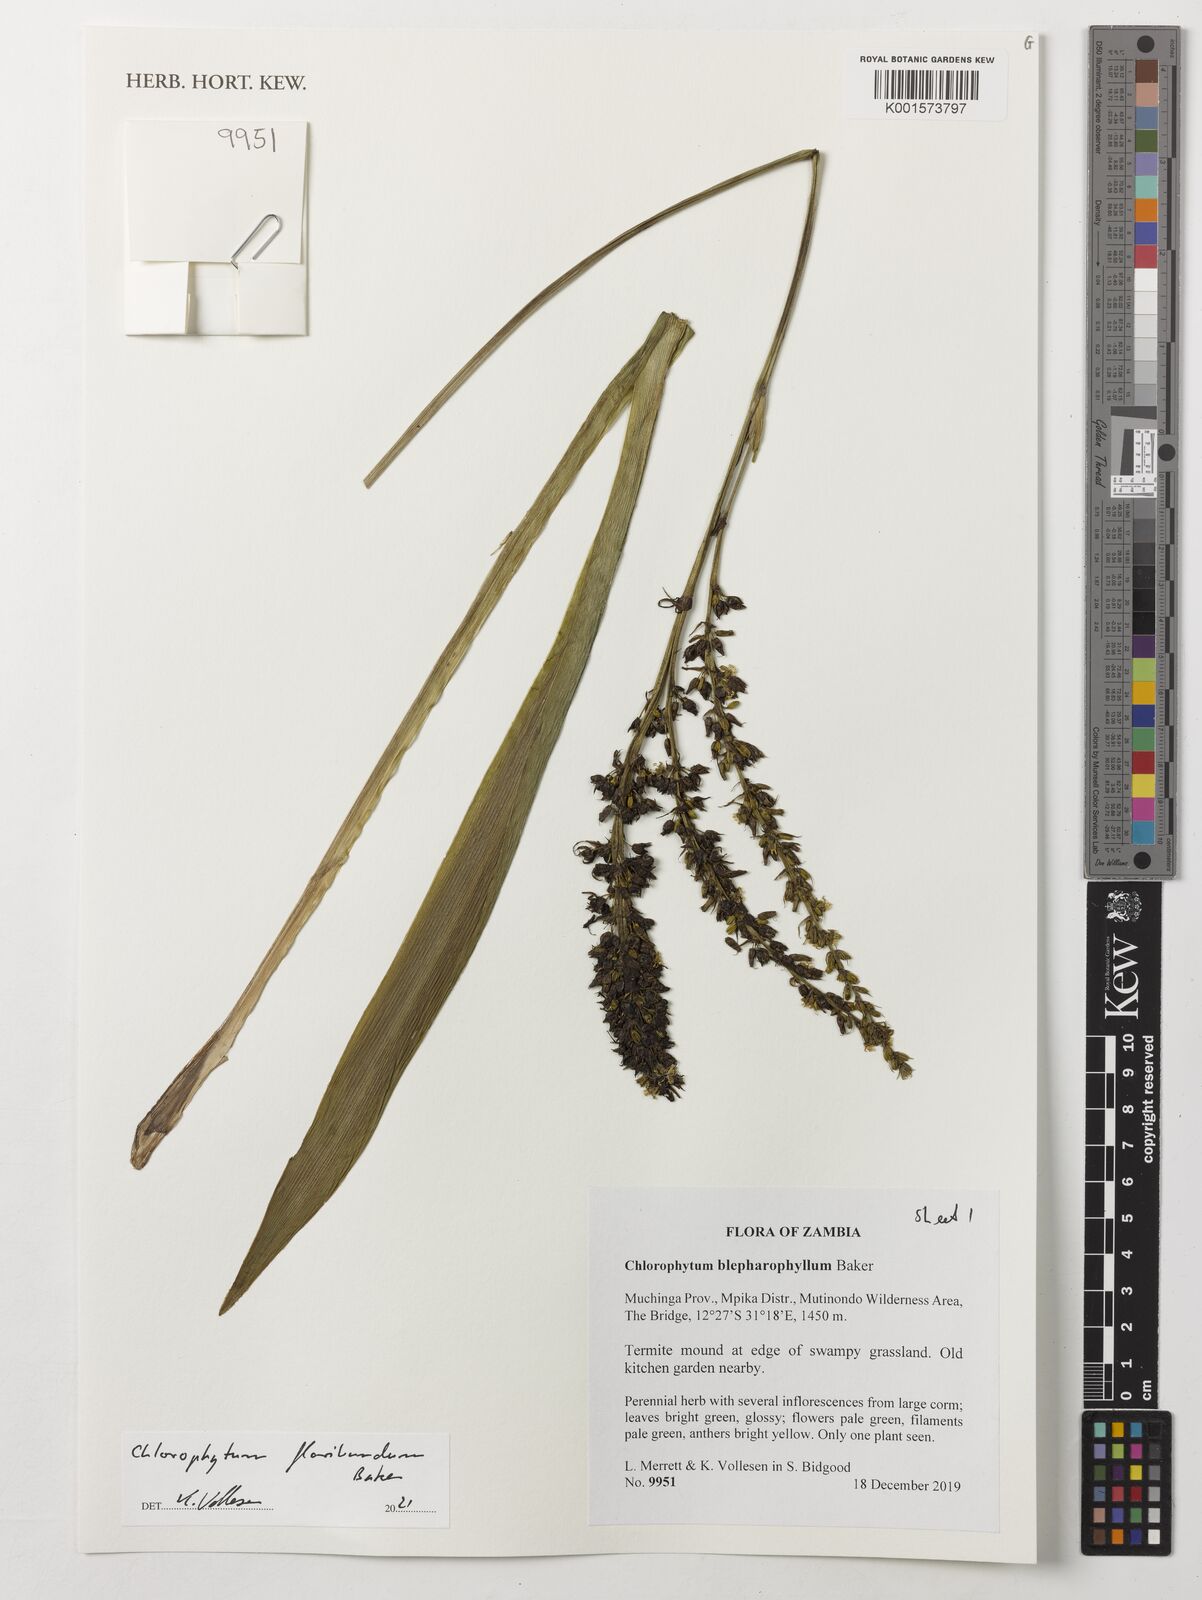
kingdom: Plantae
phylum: Tracheophyta
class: Liliopsida
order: Asparagales
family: Asparagaceae
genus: Chlorophytum
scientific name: Chlorophytum gallabatense
